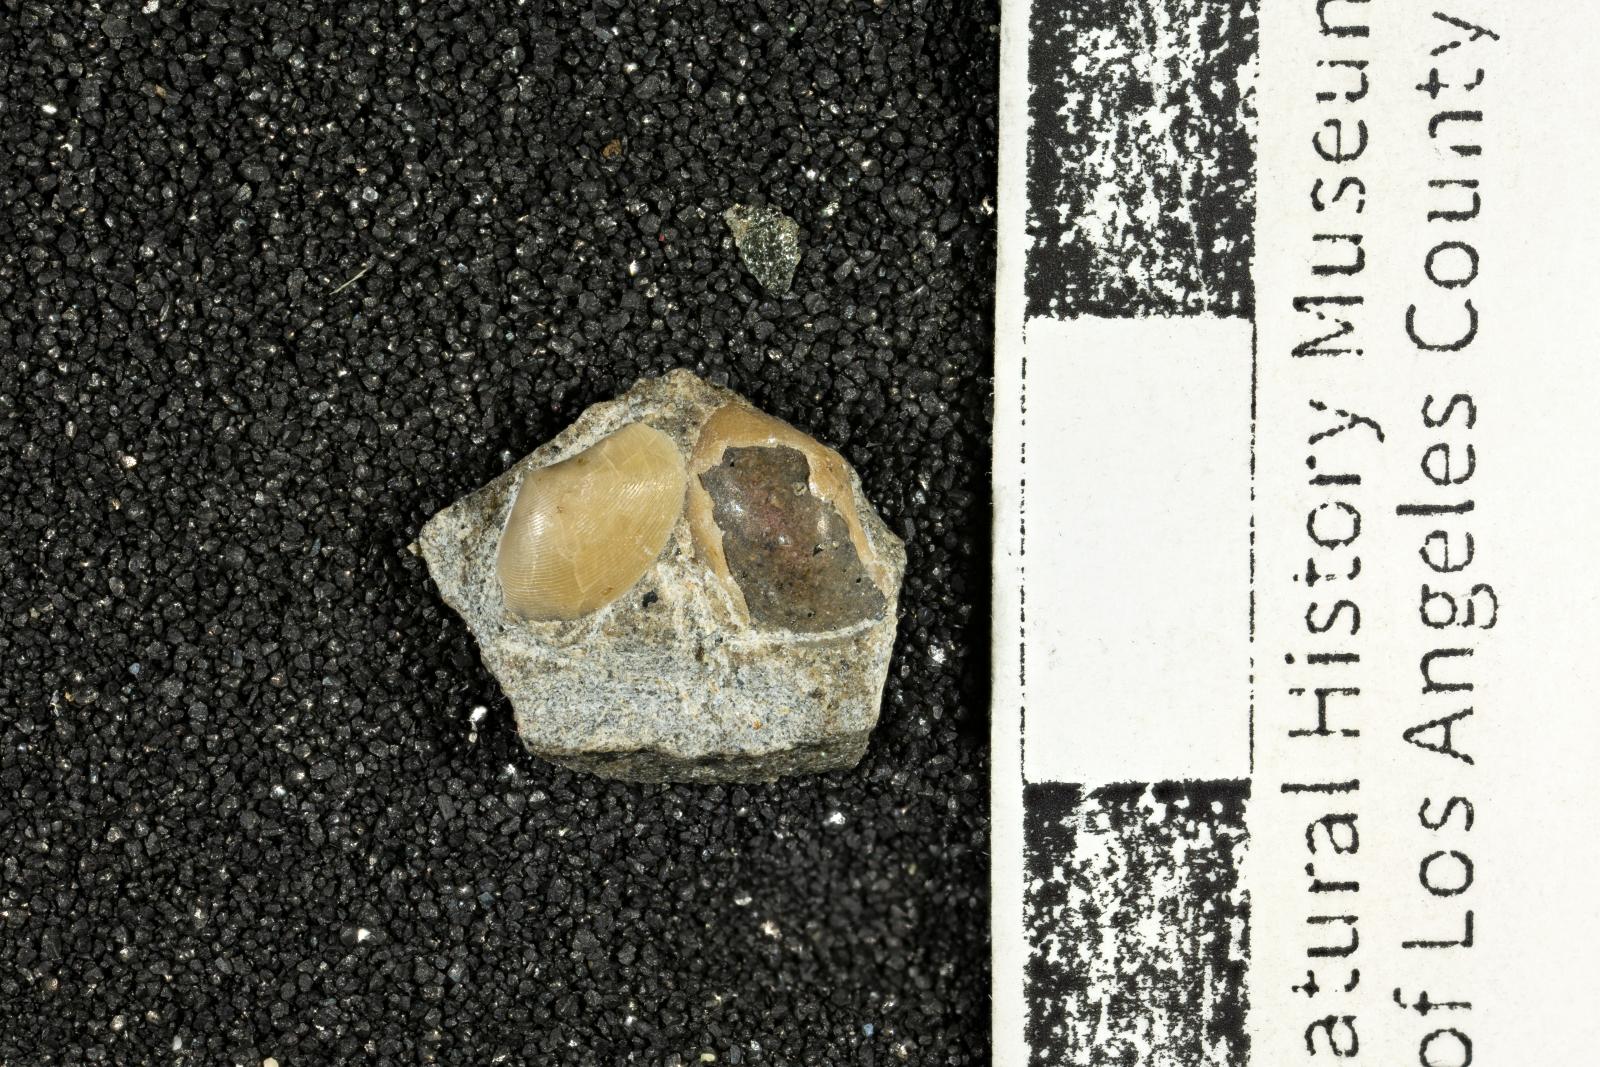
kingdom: Animalia
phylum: Mollusca
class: Bivalvia
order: Nuculanida
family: Nuculanidae
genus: Nuculana
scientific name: Nuculana Leda striatula
